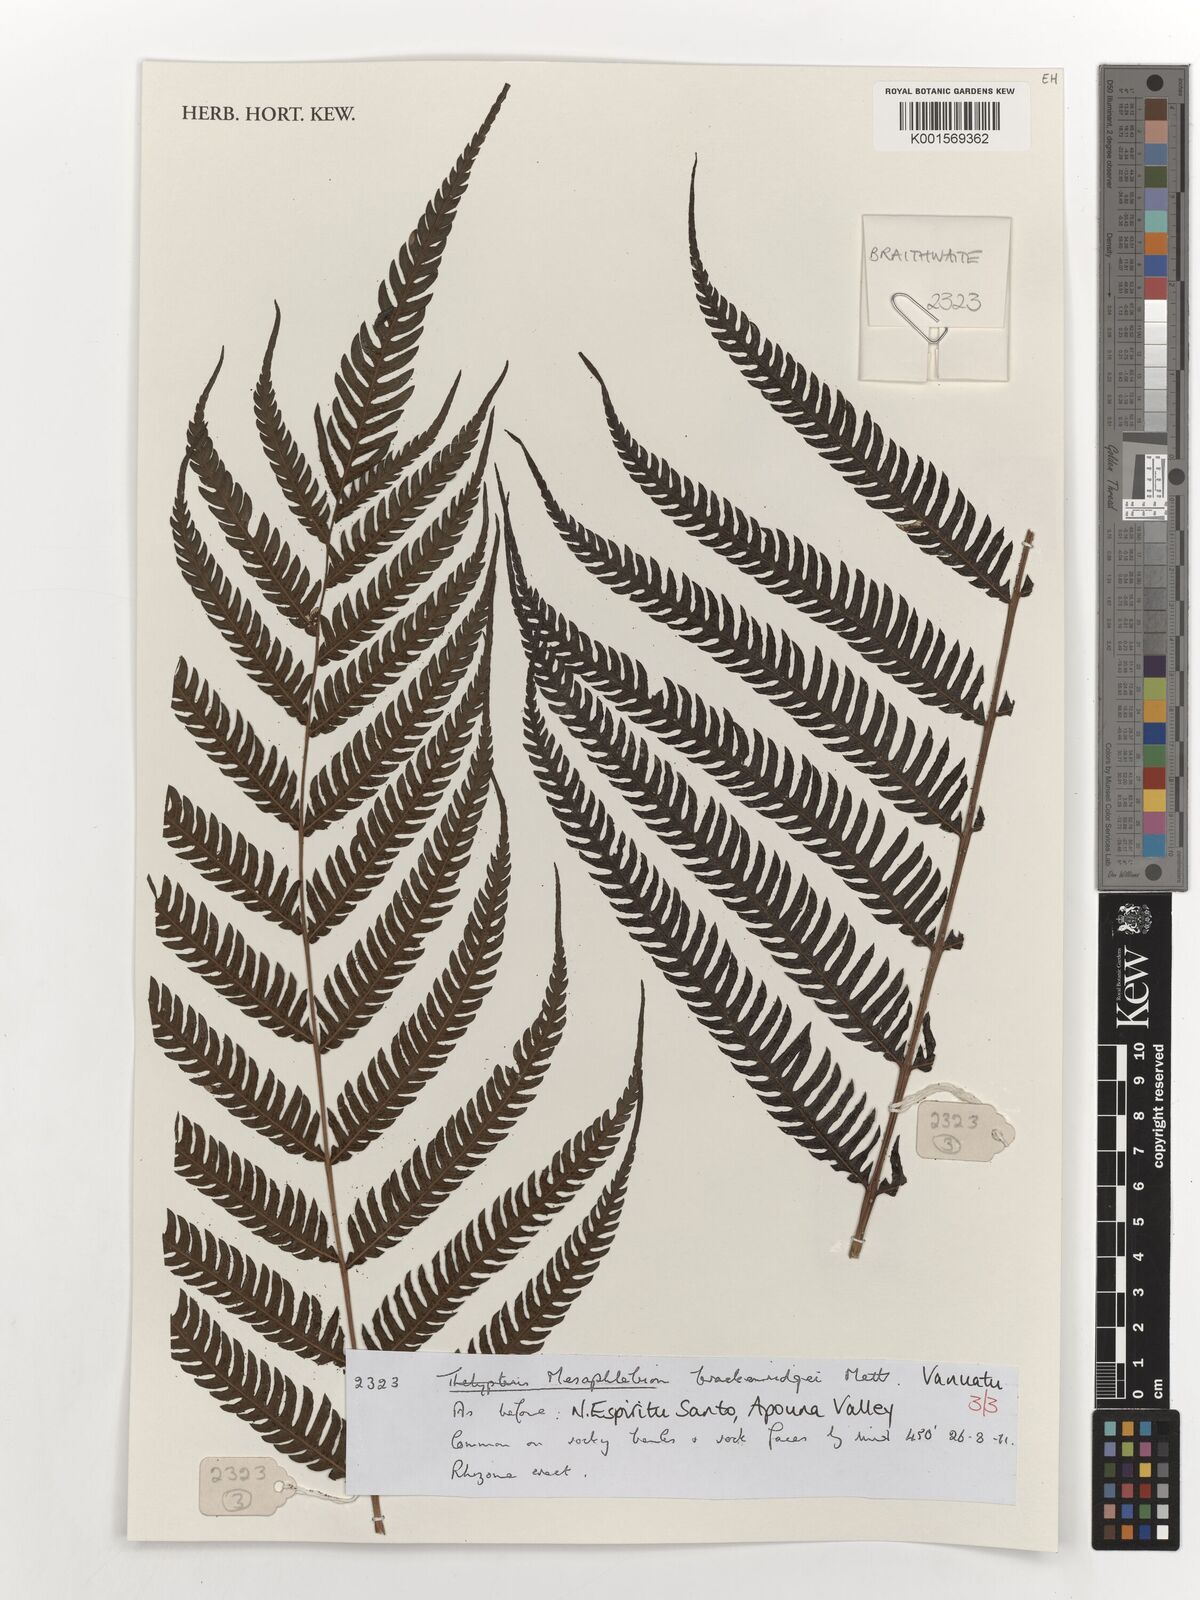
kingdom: Plantae
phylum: Tracheophyta
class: Polypodiopsida
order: Polypodiales
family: Thelypteridaceae
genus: Mesophlebion
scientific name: Mesophlebion
